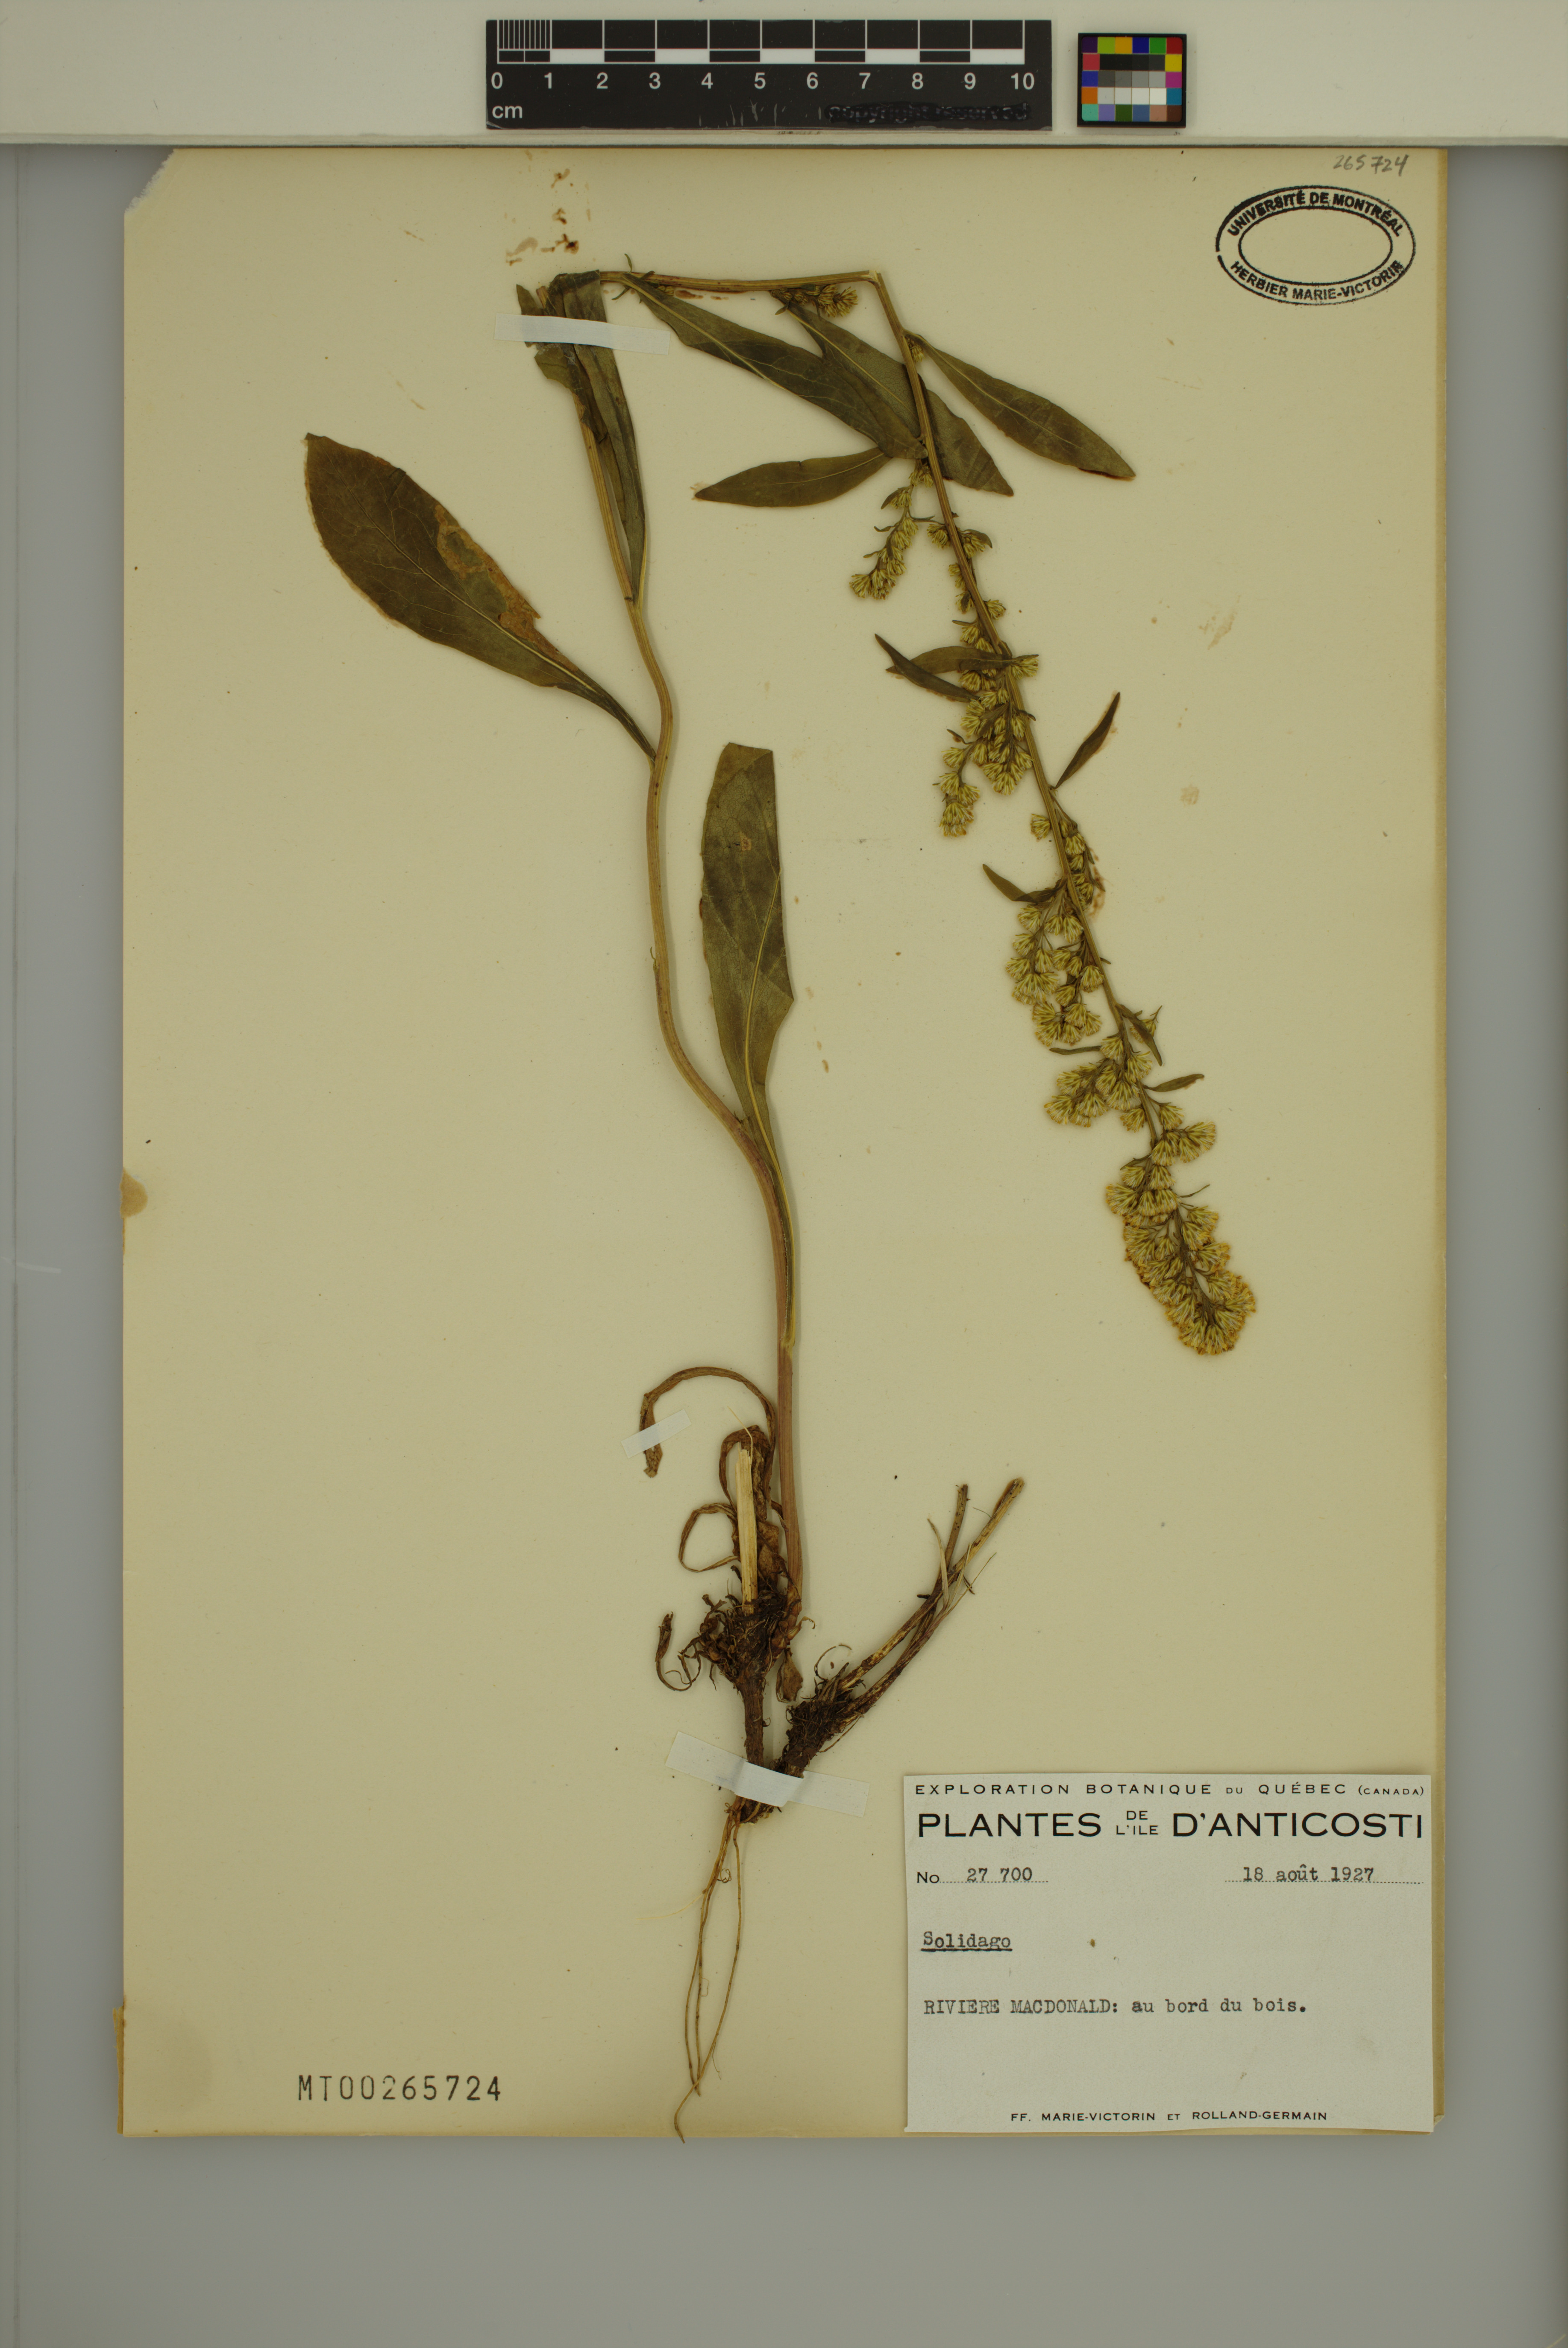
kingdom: Plantae
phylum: Tracheophyta
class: Magnoliopsida
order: Asterales
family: Asteraceae
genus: Solidago
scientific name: Solidago racemosa
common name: Lake ontario goldenrod
